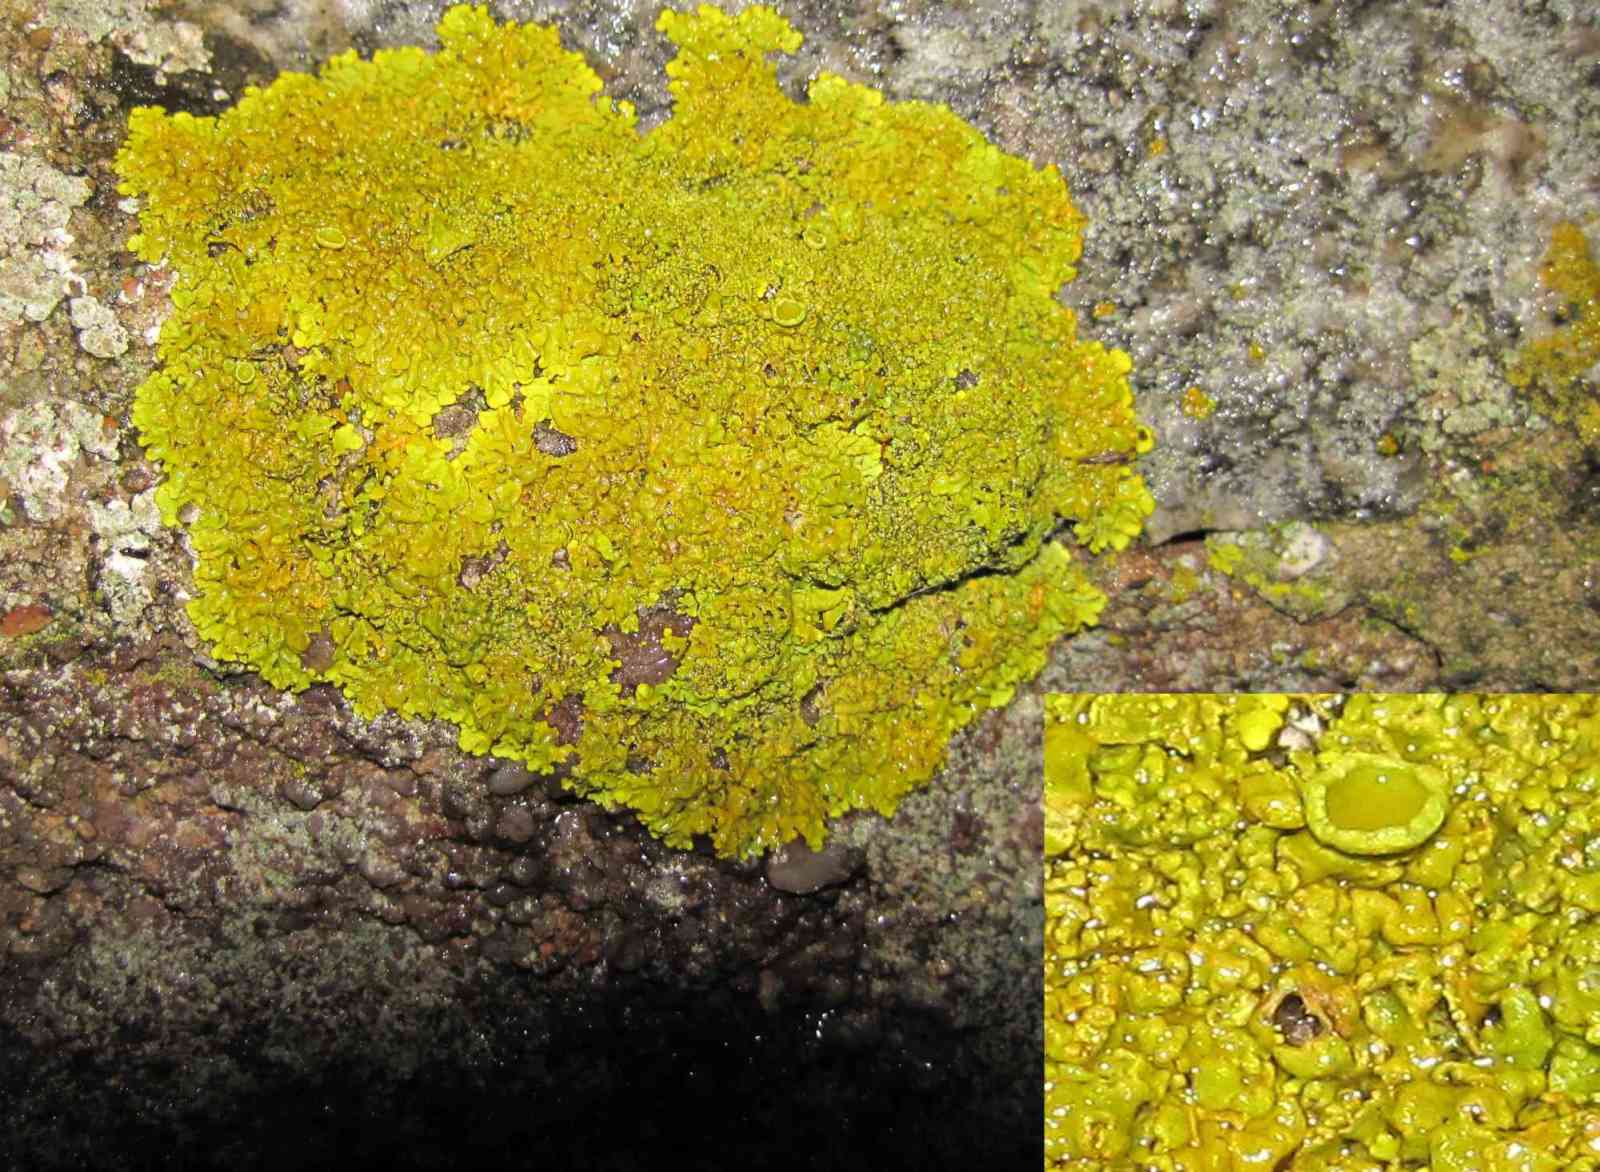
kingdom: Fungi
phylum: Ascomycota
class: Lecanoromycetes
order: Teloschistales
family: Teloschistaceae
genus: Xanthoria
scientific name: Xanthoria calcicola
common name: vortet væggelav
